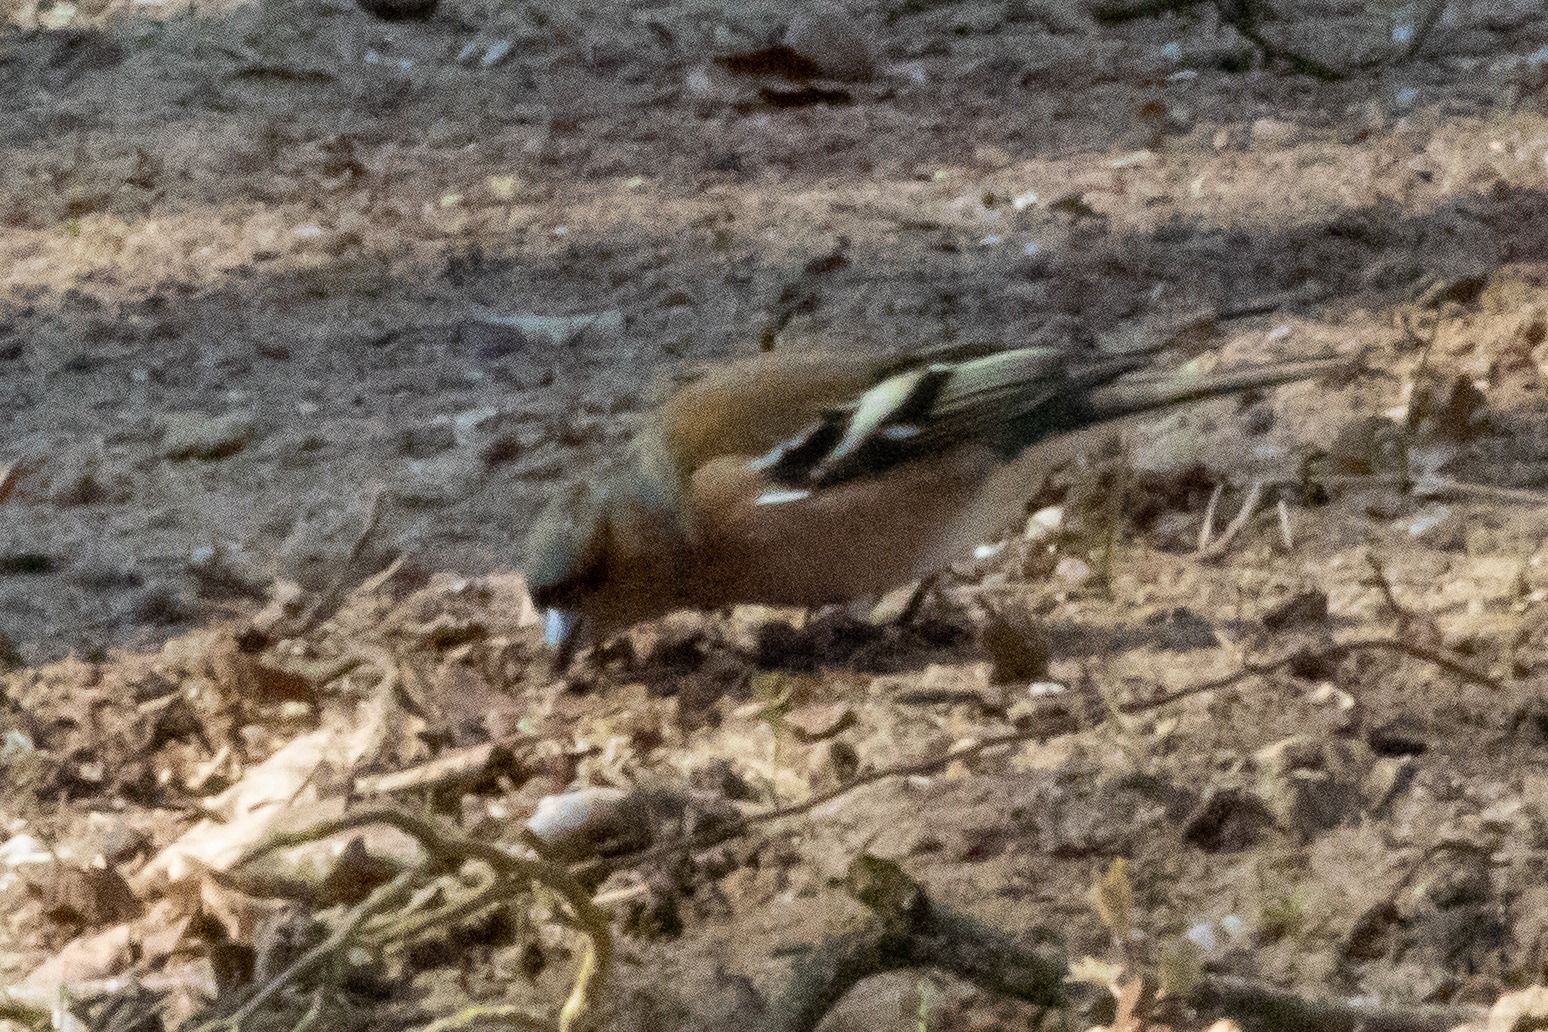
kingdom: Animalia
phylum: Chordata
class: Aves
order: Passeriformes
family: Fringillidae
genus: Fringilla
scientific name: Fringilla coelebs
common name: Bogfinke
